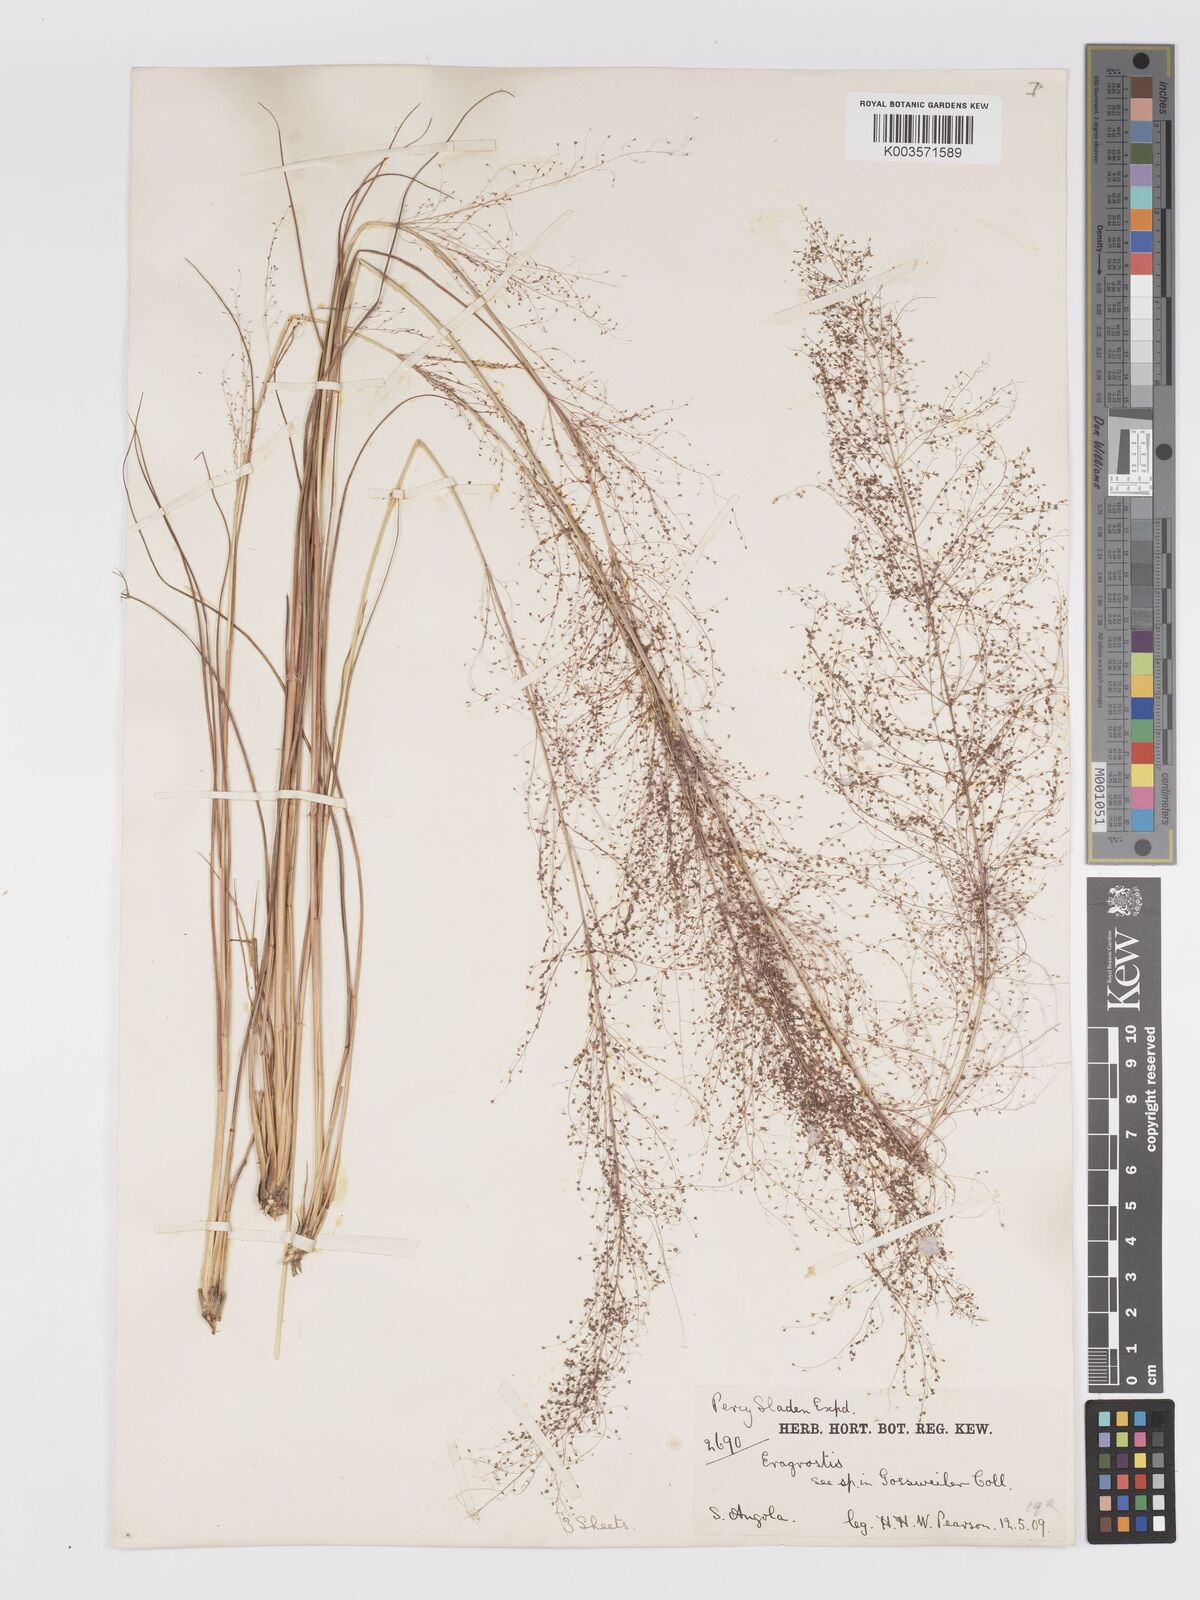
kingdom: Plantae
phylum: Tracheophyta
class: Liliopsida
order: Poales
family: Poaceae
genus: Eragrostis
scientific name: Eragrostis habrantha
